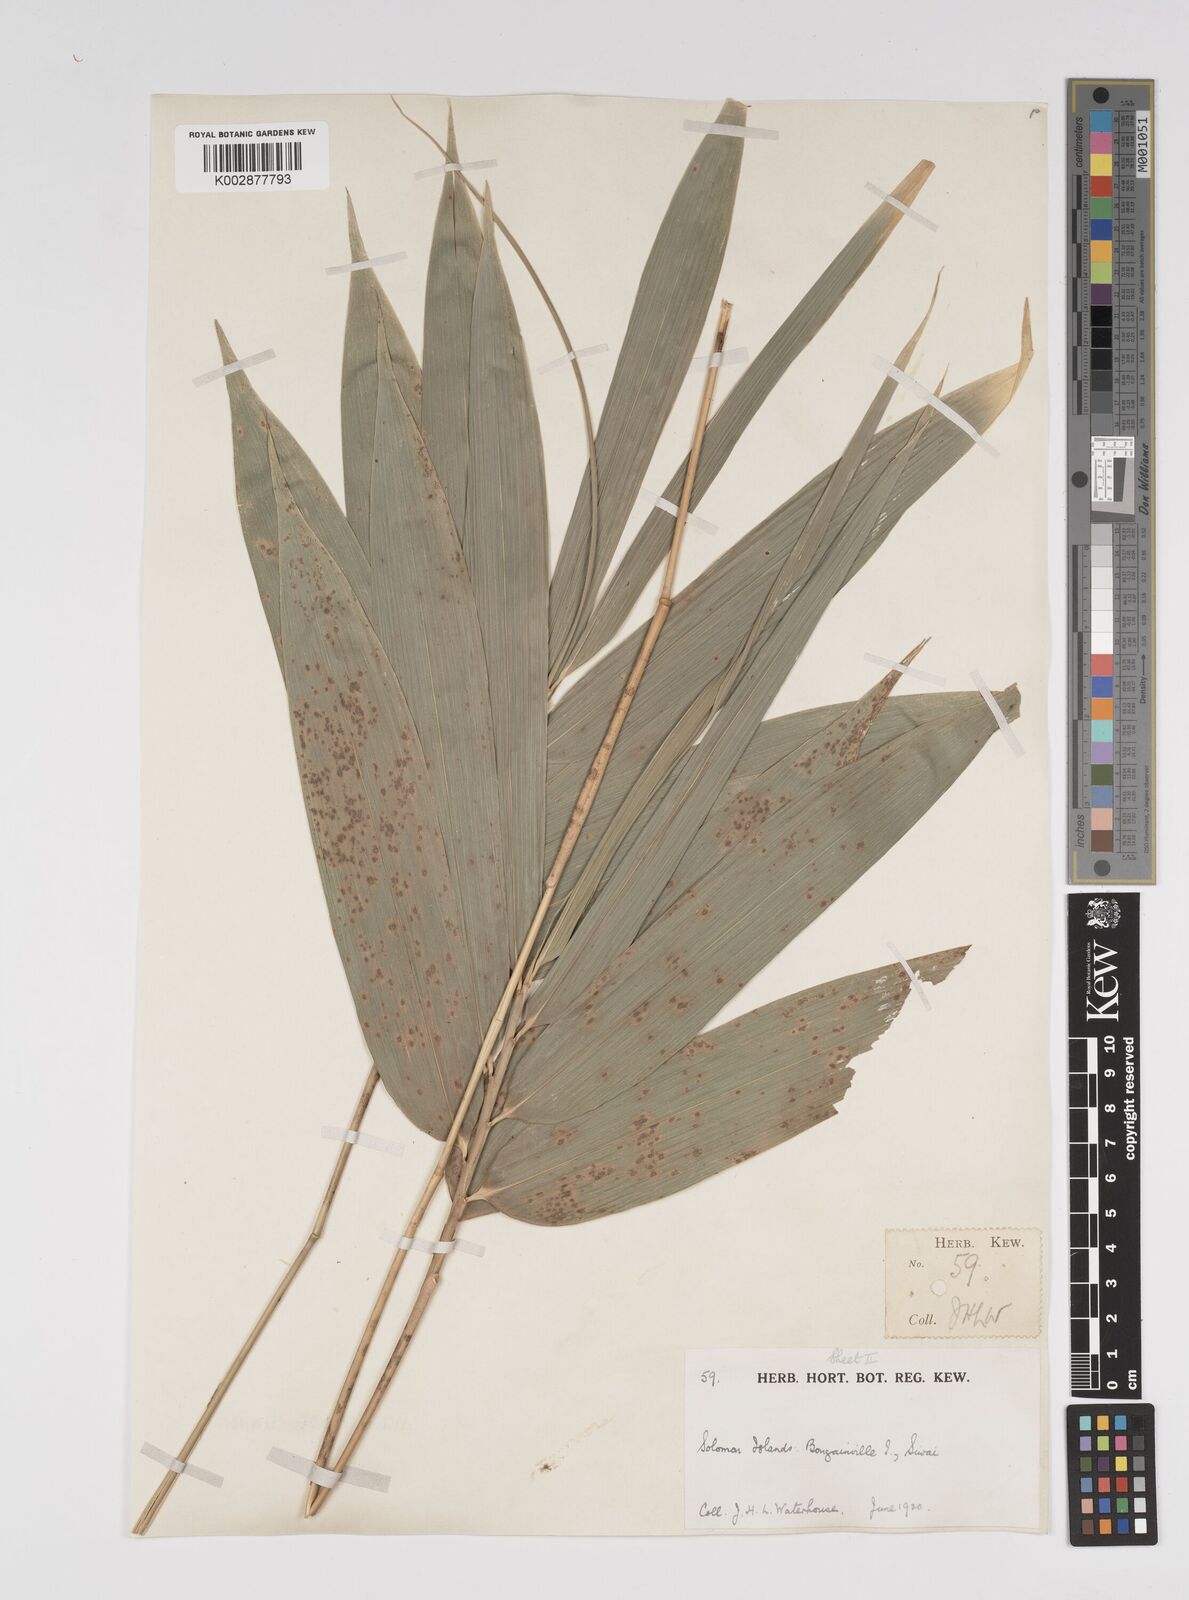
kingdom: Plantae
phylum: Tracheophyta
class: Liliopsida
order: Poales
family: Poaceae
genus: Bambusa
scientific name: Bambusa multiplex
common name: Hedge bamboo
